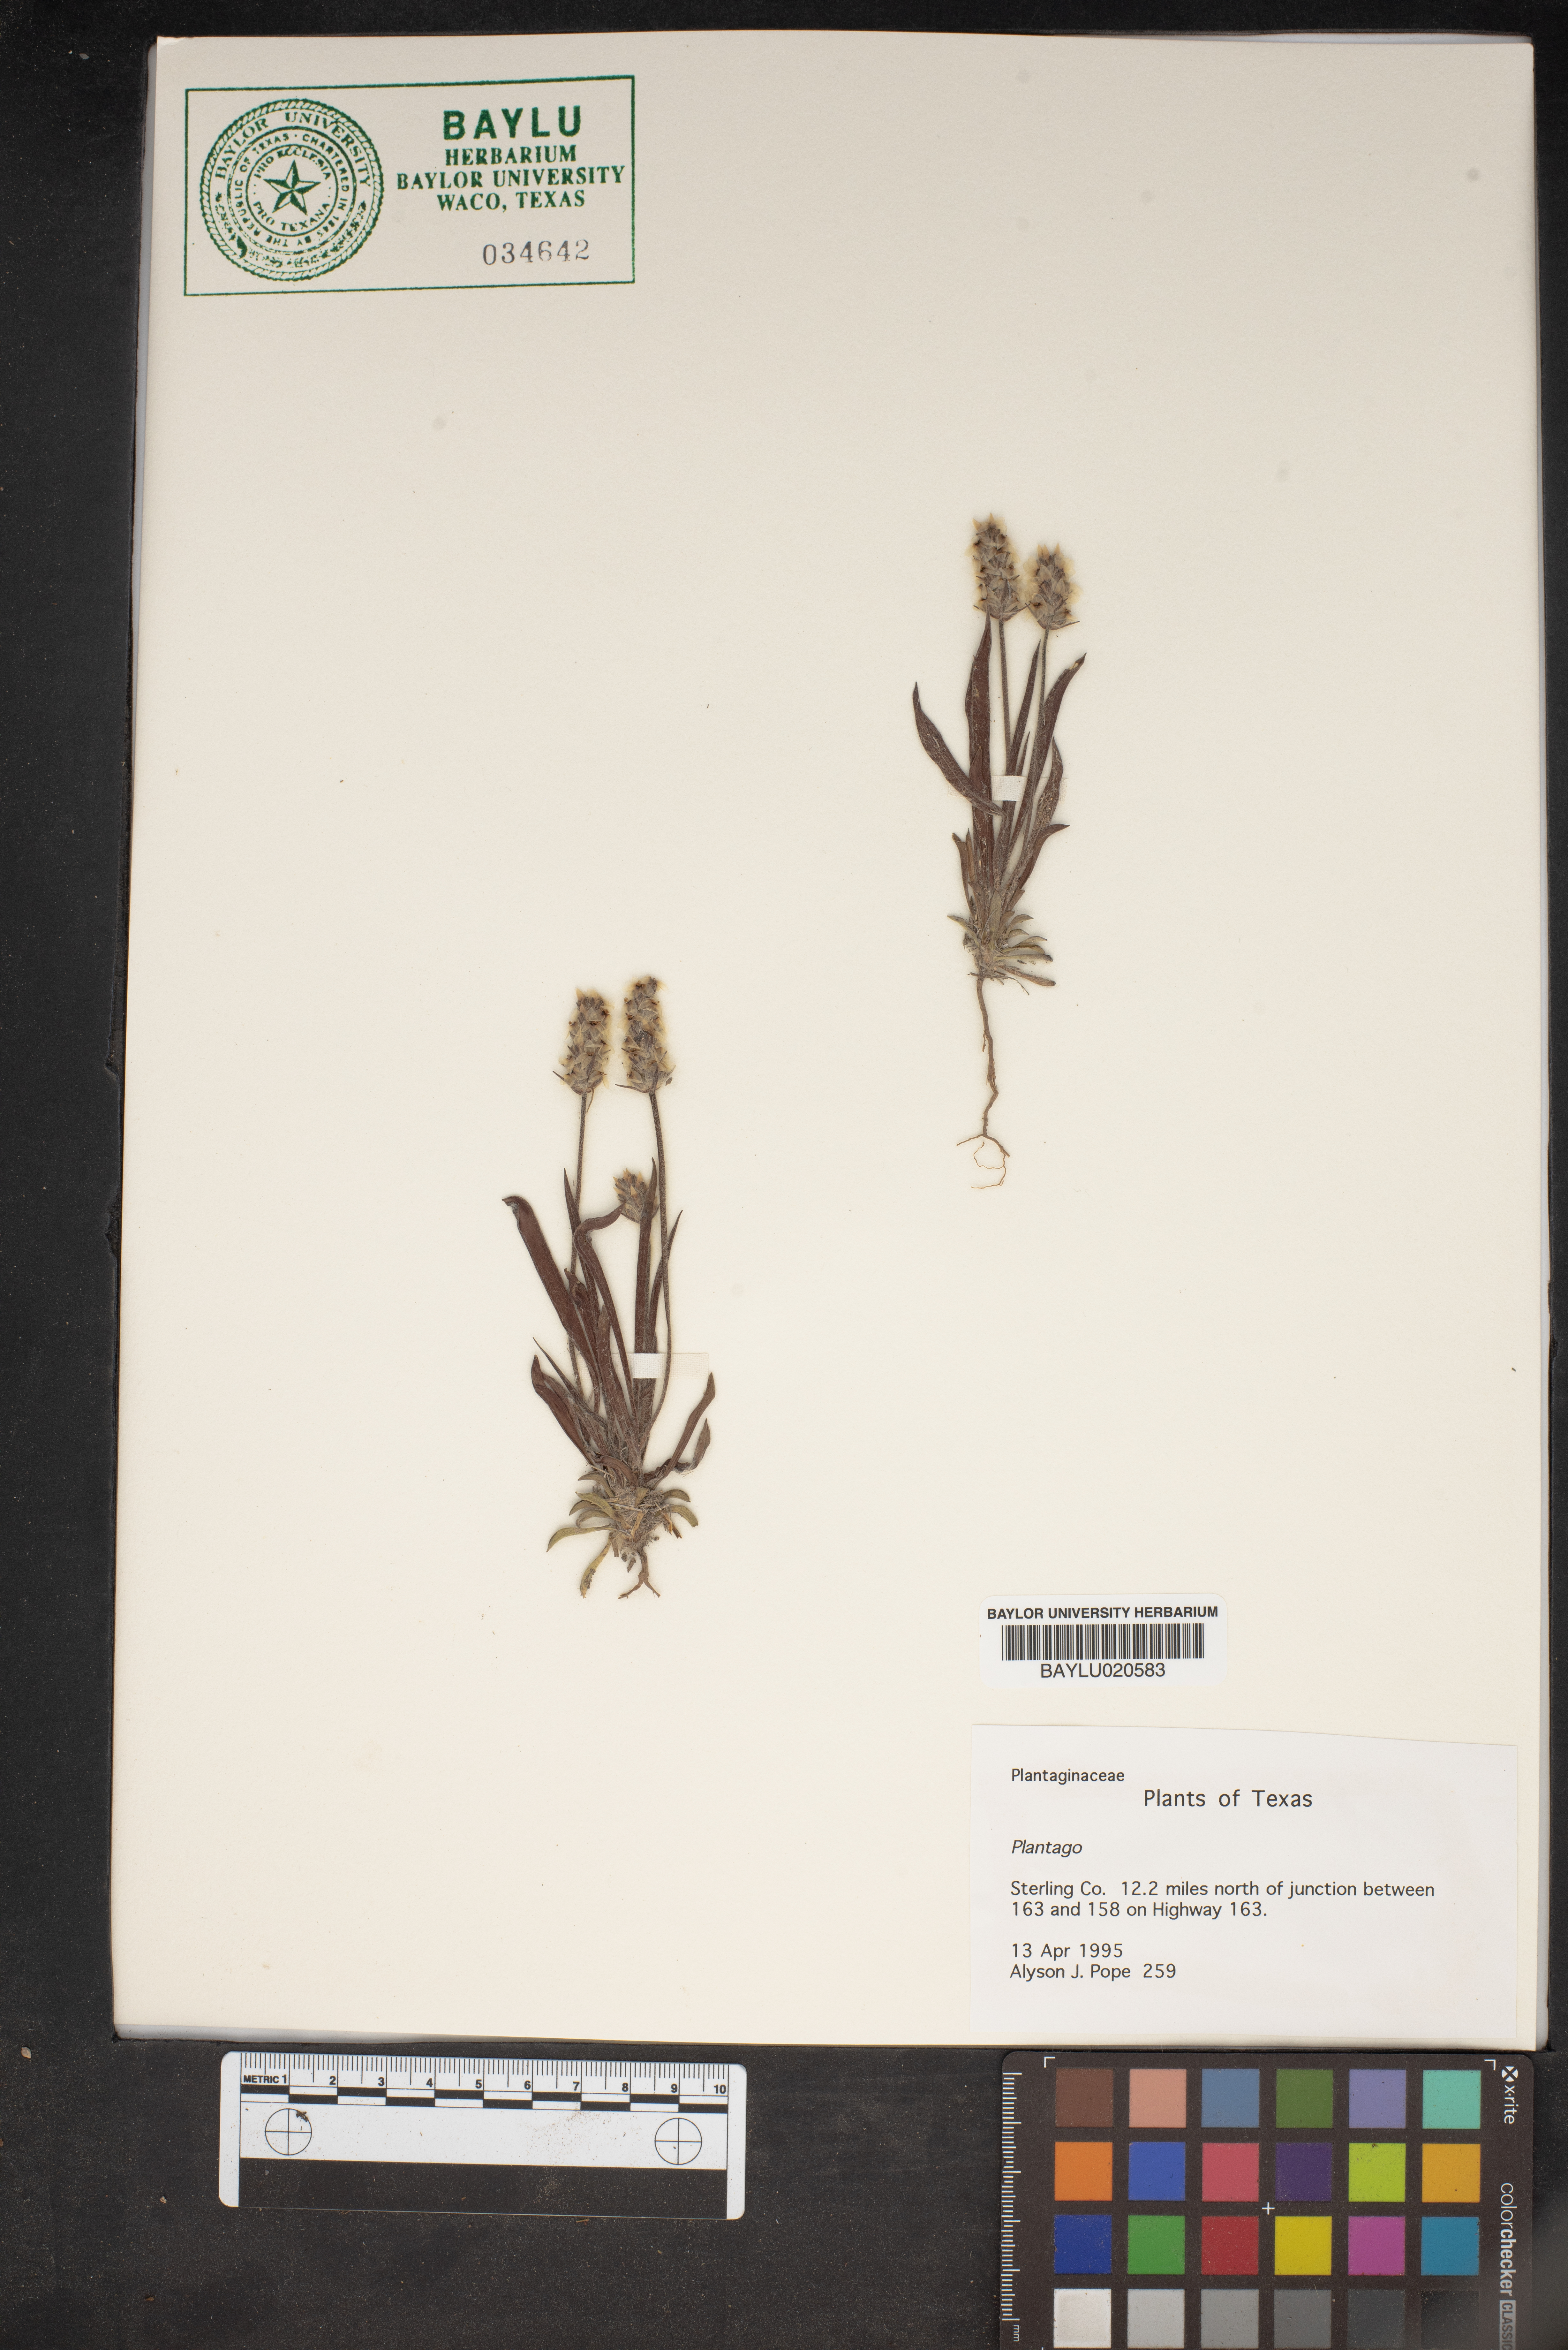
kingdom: Plantae
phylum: Tracheophyta
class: Magnoliopsida
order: Lamiales
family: Plantaginaceae
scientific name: Plantaginaceae
